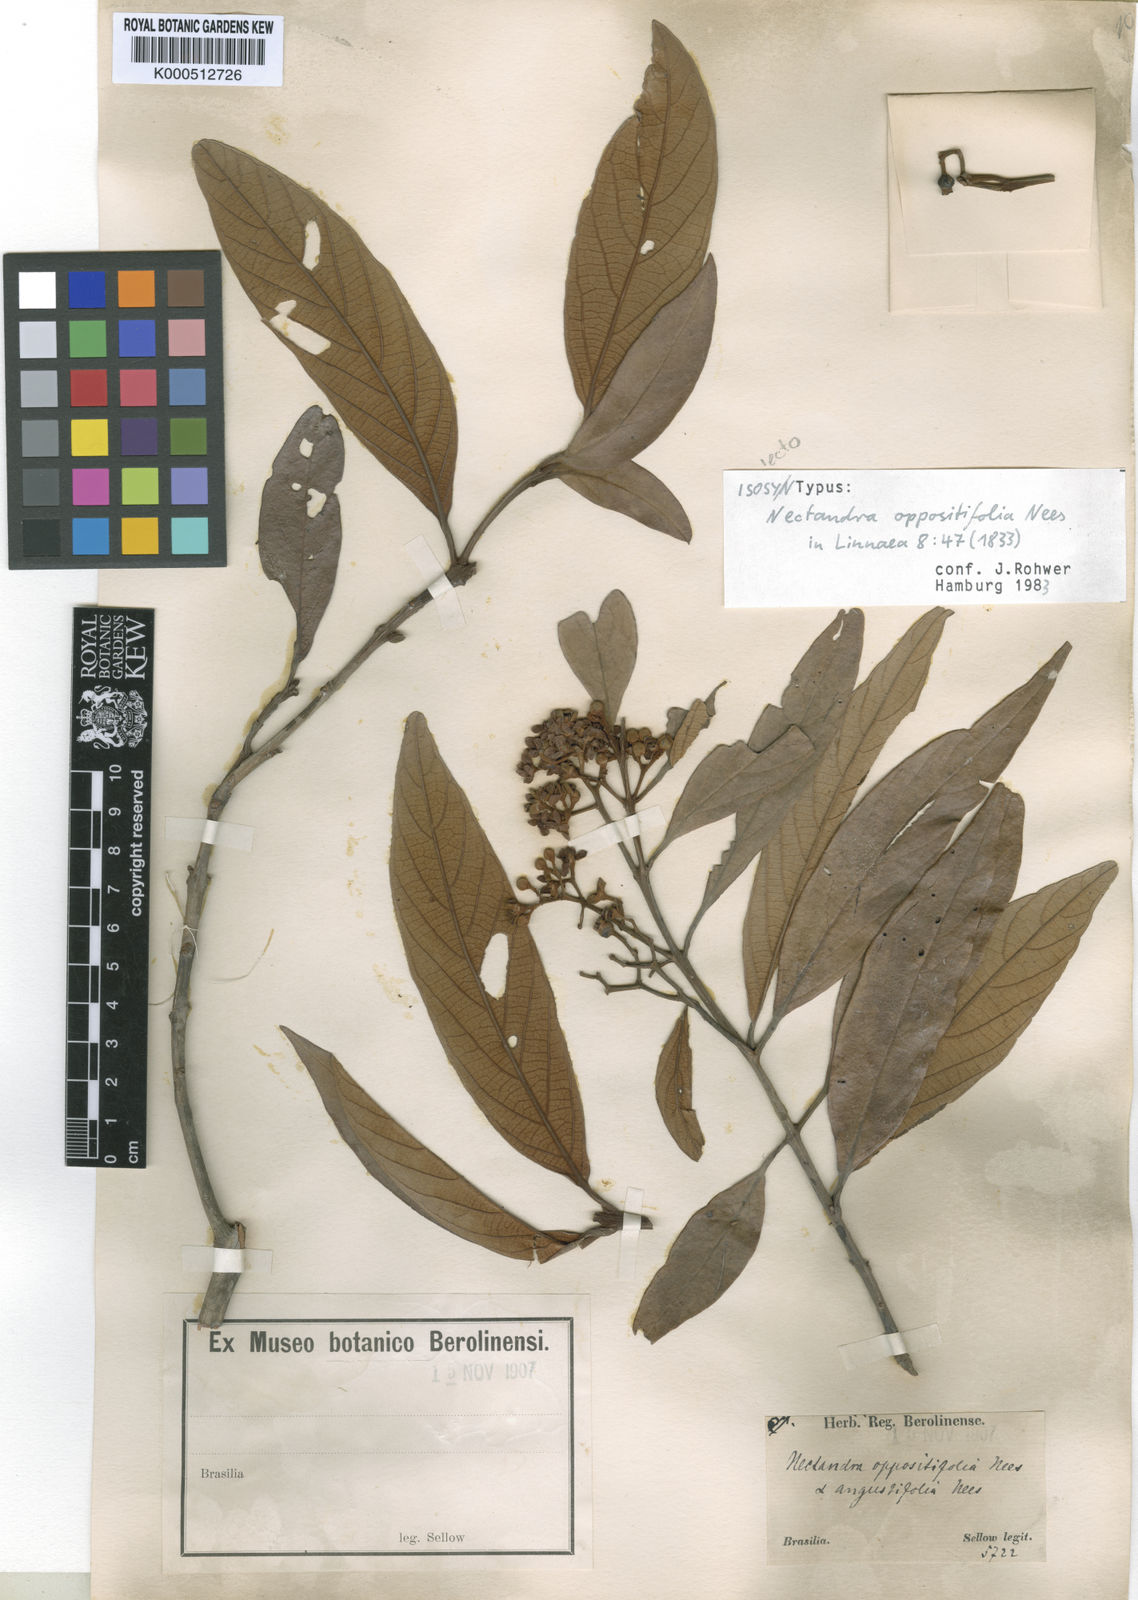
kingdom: Plantae
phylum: Tracheophyta
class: Magnoliopsida
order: Laurales
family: Lauraceae
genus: Nectandra
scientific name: Nectandra oppositifolia
